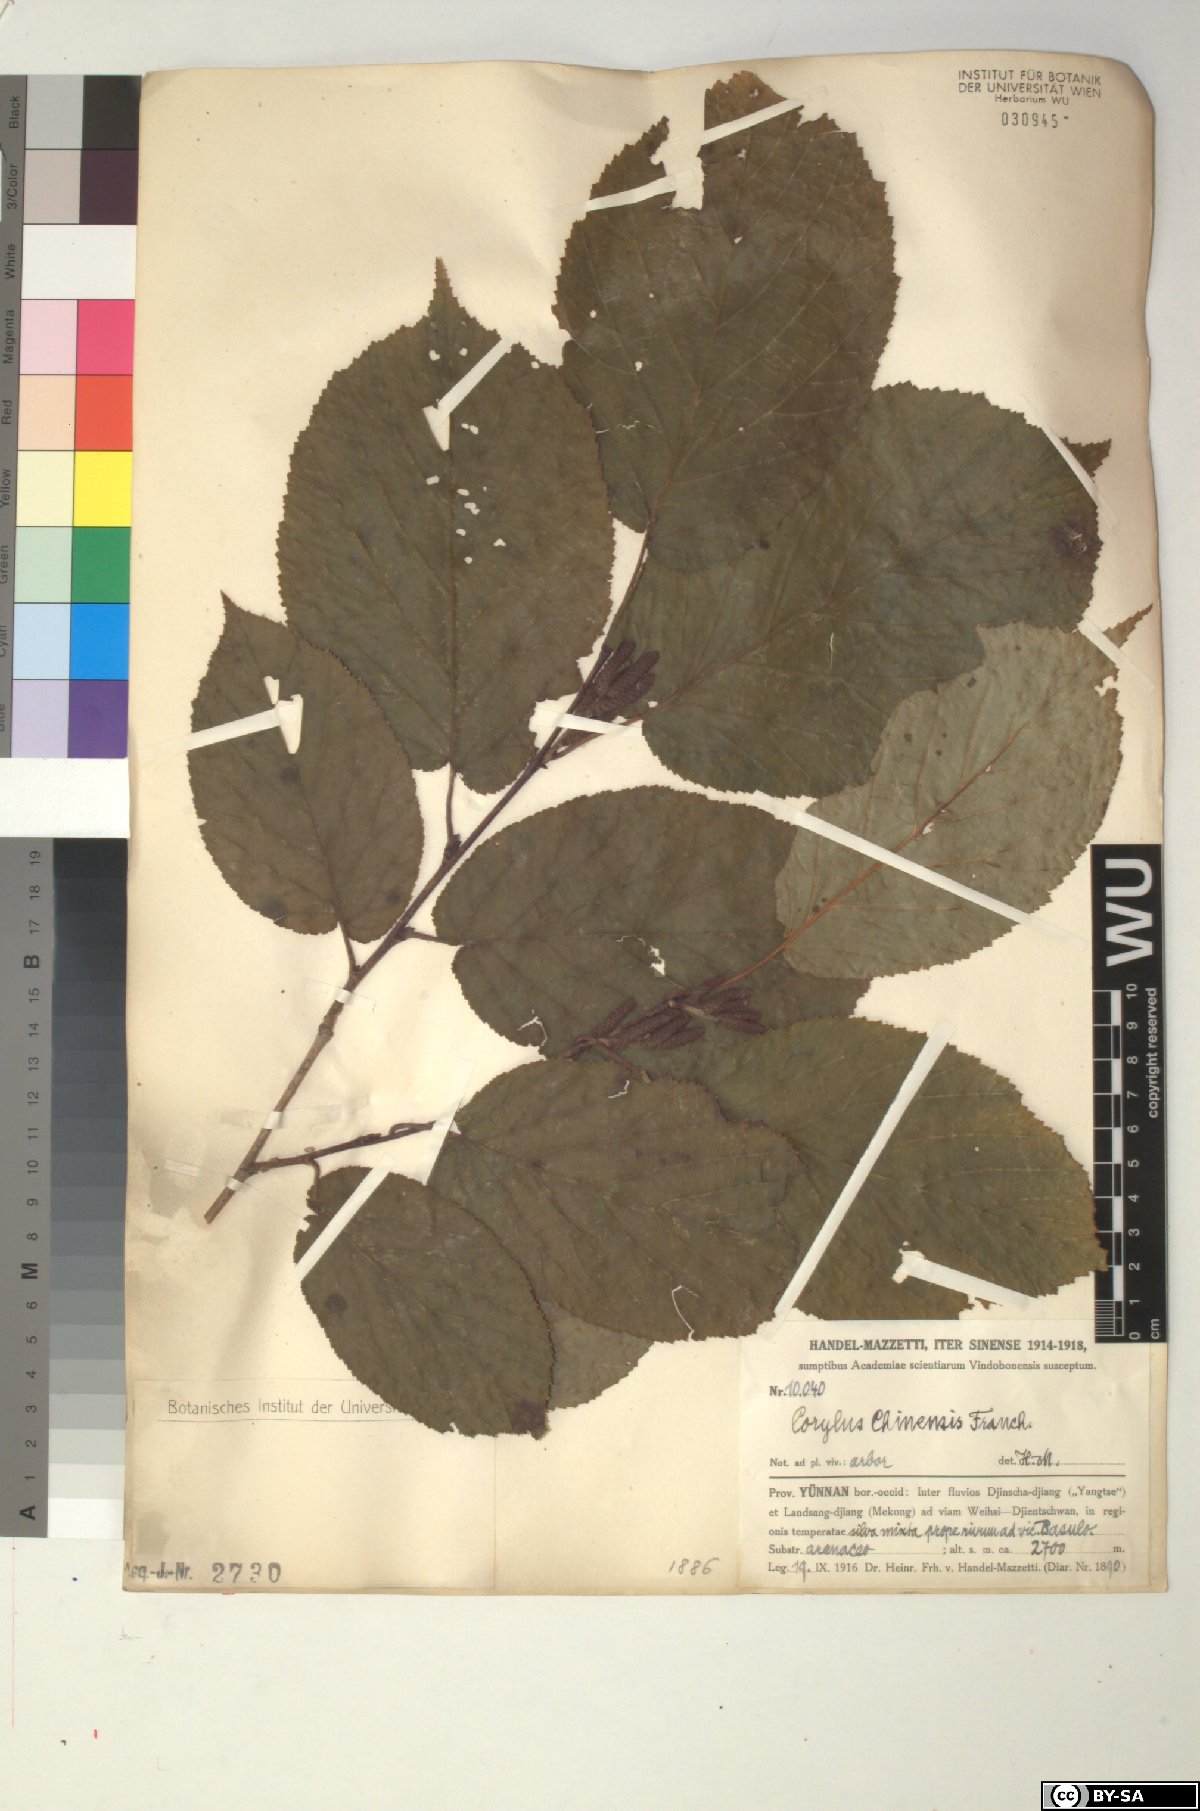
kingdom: Plantae
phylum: Tracheophyta
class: Magnoliopsida
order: Fagales
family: Betulaceae
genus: Corylus
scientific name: Corylus chinensis
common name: Chinese hazlenut
